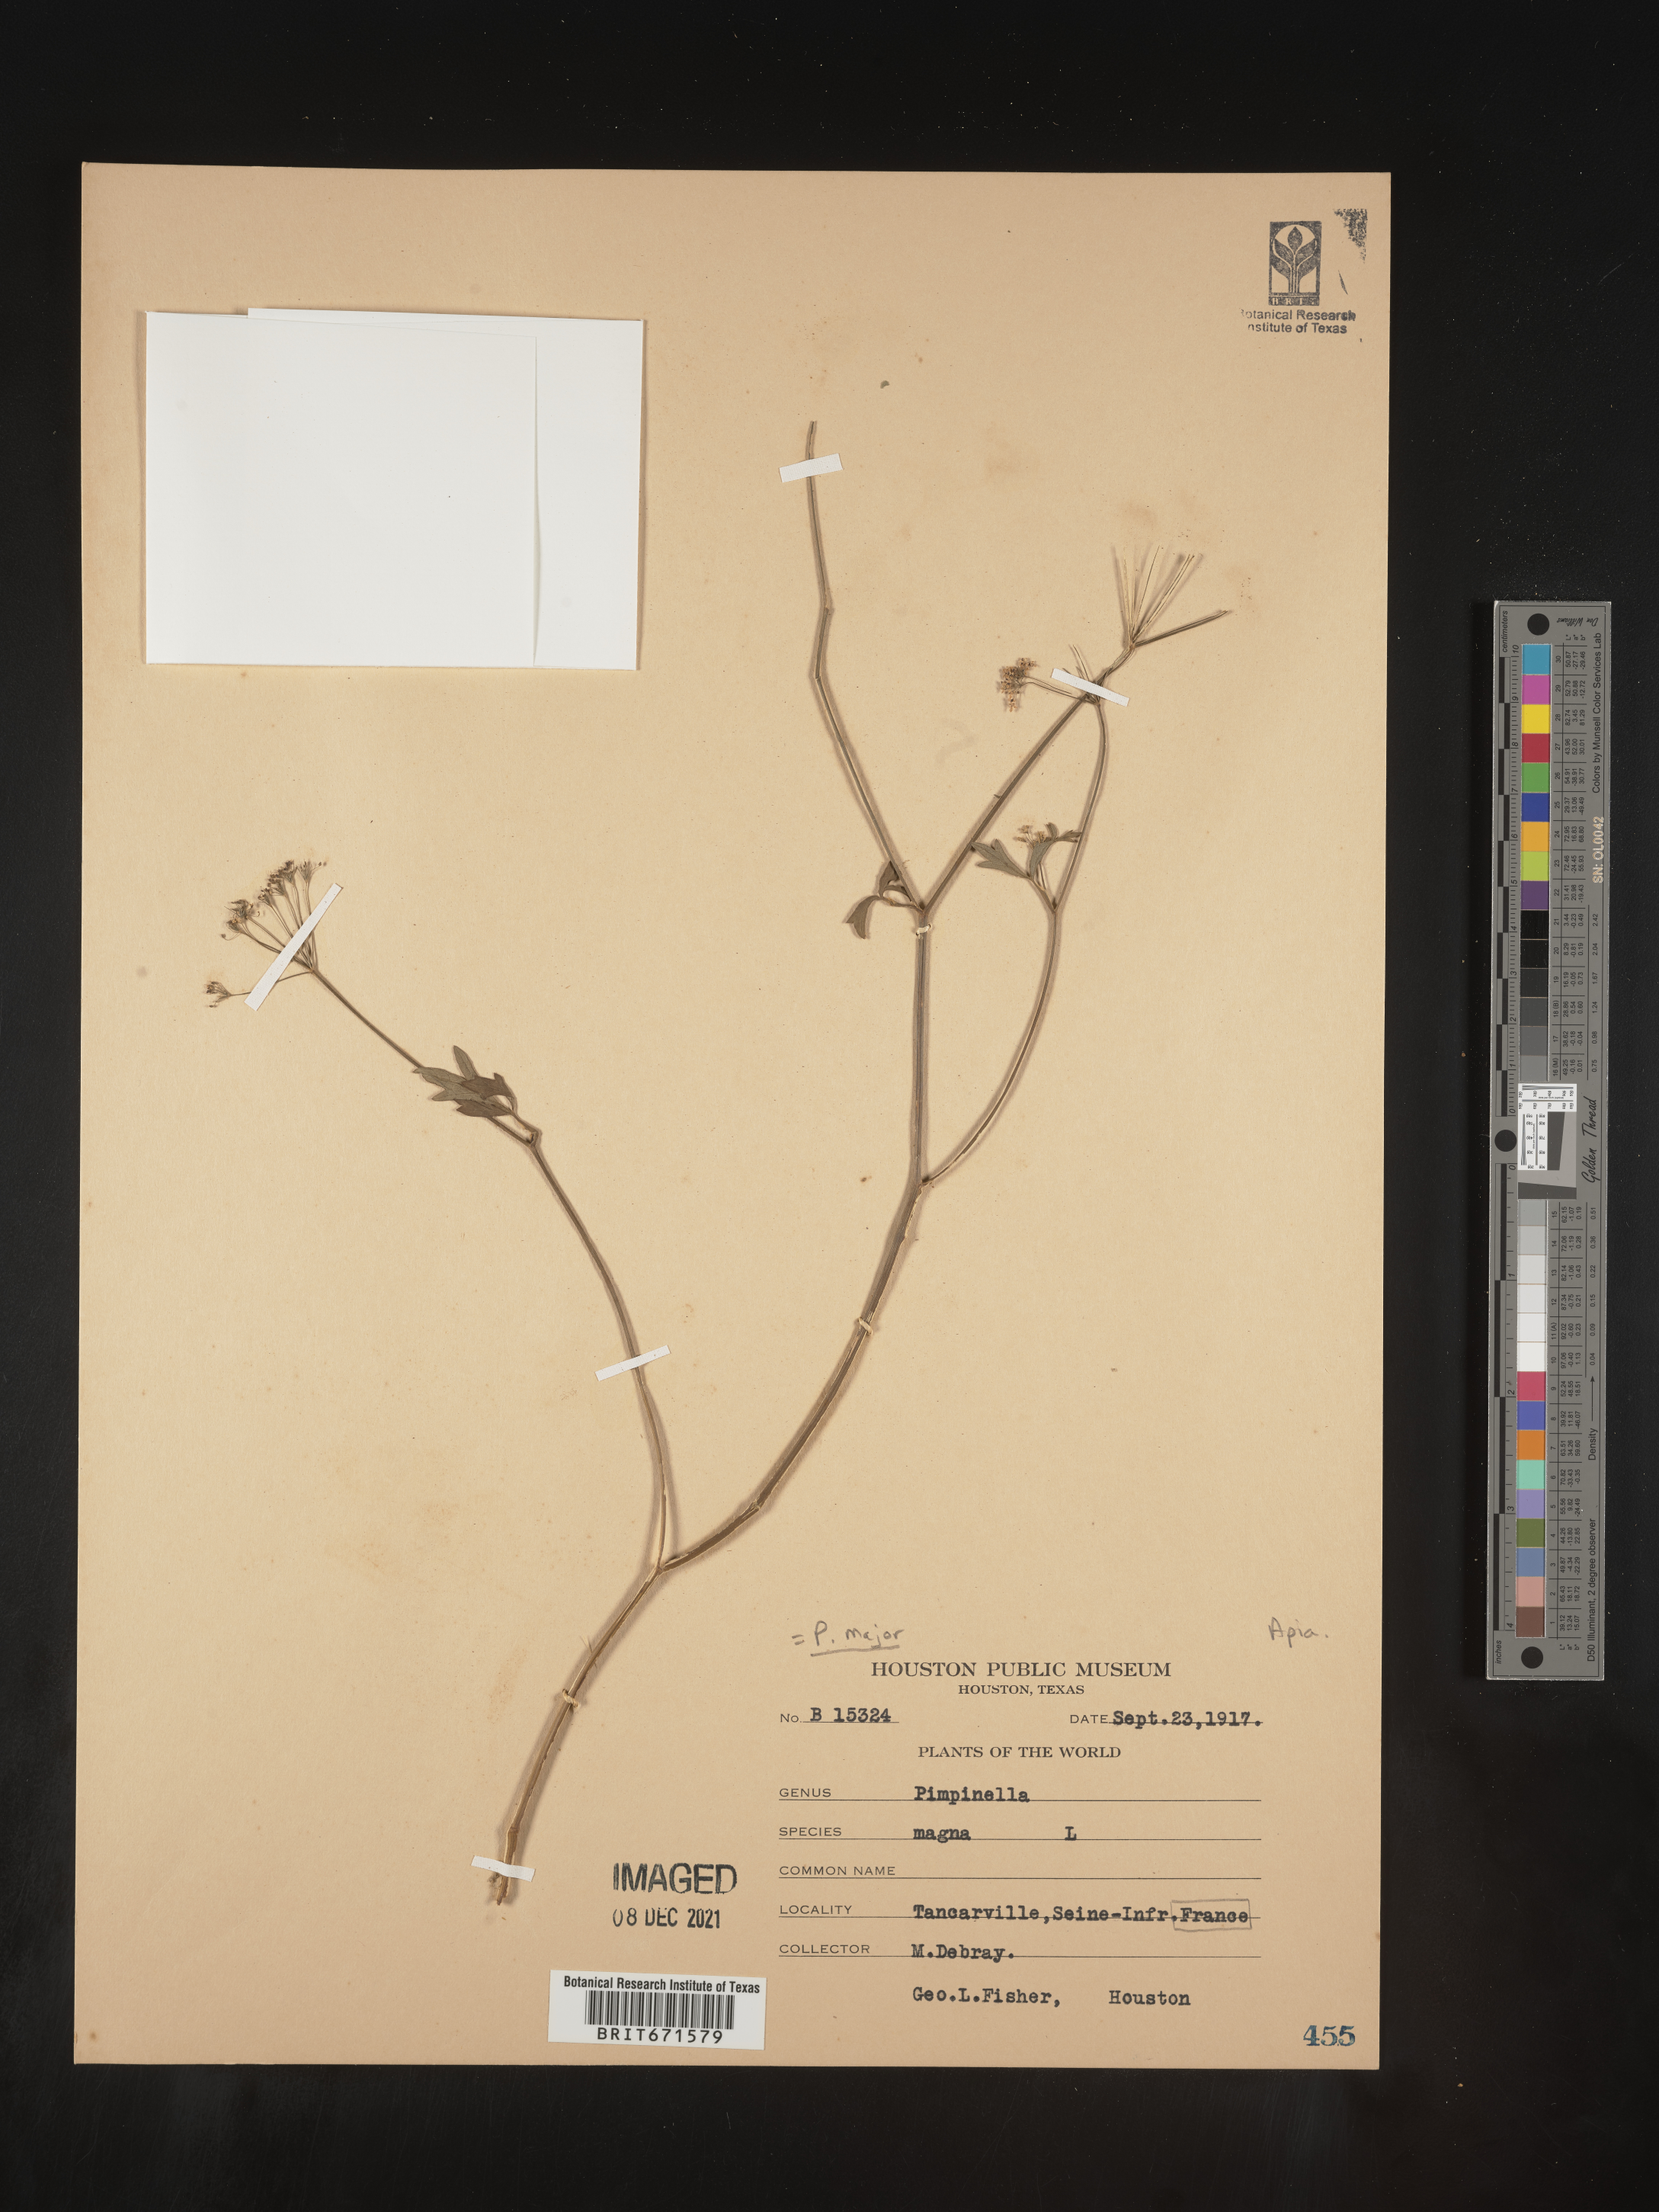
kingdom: Plantae
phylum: Tracheophyta
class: Magnoliopsida
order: Apiales
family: Apiaceae
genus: Pimpinella
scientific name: Pimpinella major
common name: Greater burnet-saxifrage
